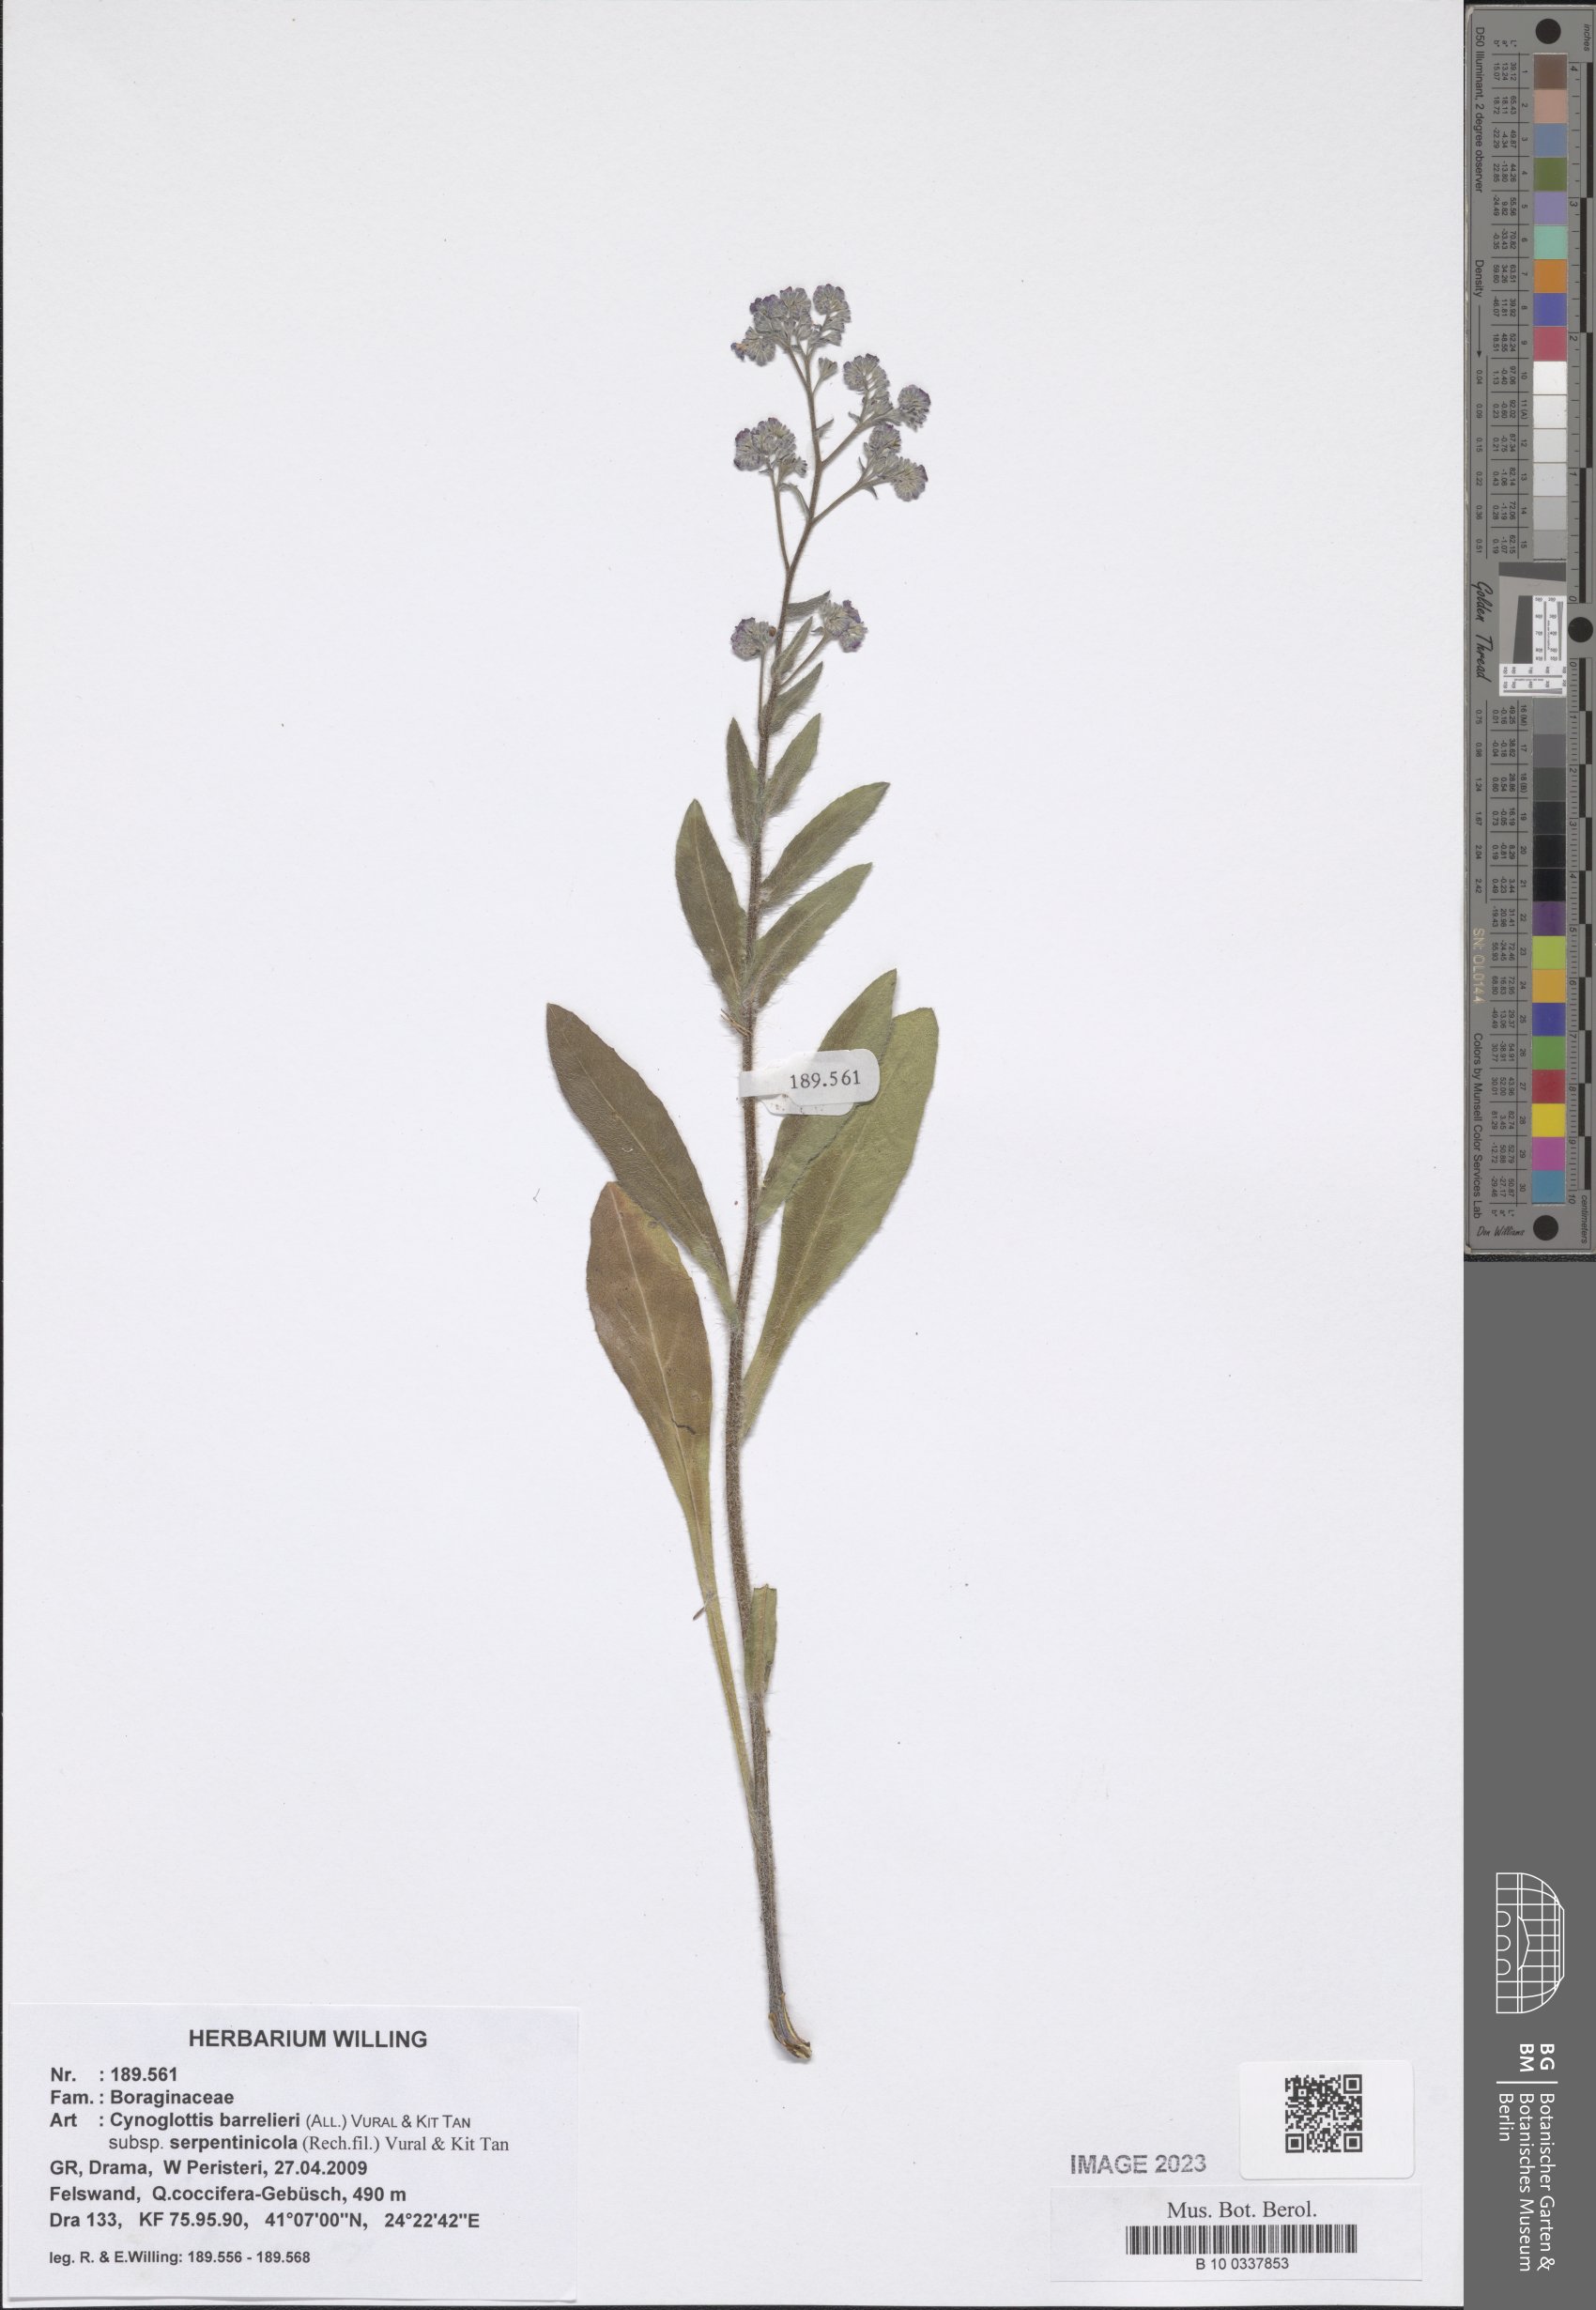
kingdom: Plantae
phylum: Tracheophyta
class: Magnoliopsida
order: Boraginales
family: Boraginaceae
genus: Cynoglottis
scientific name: Cynoglottis barrelieri
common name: False alkanet
